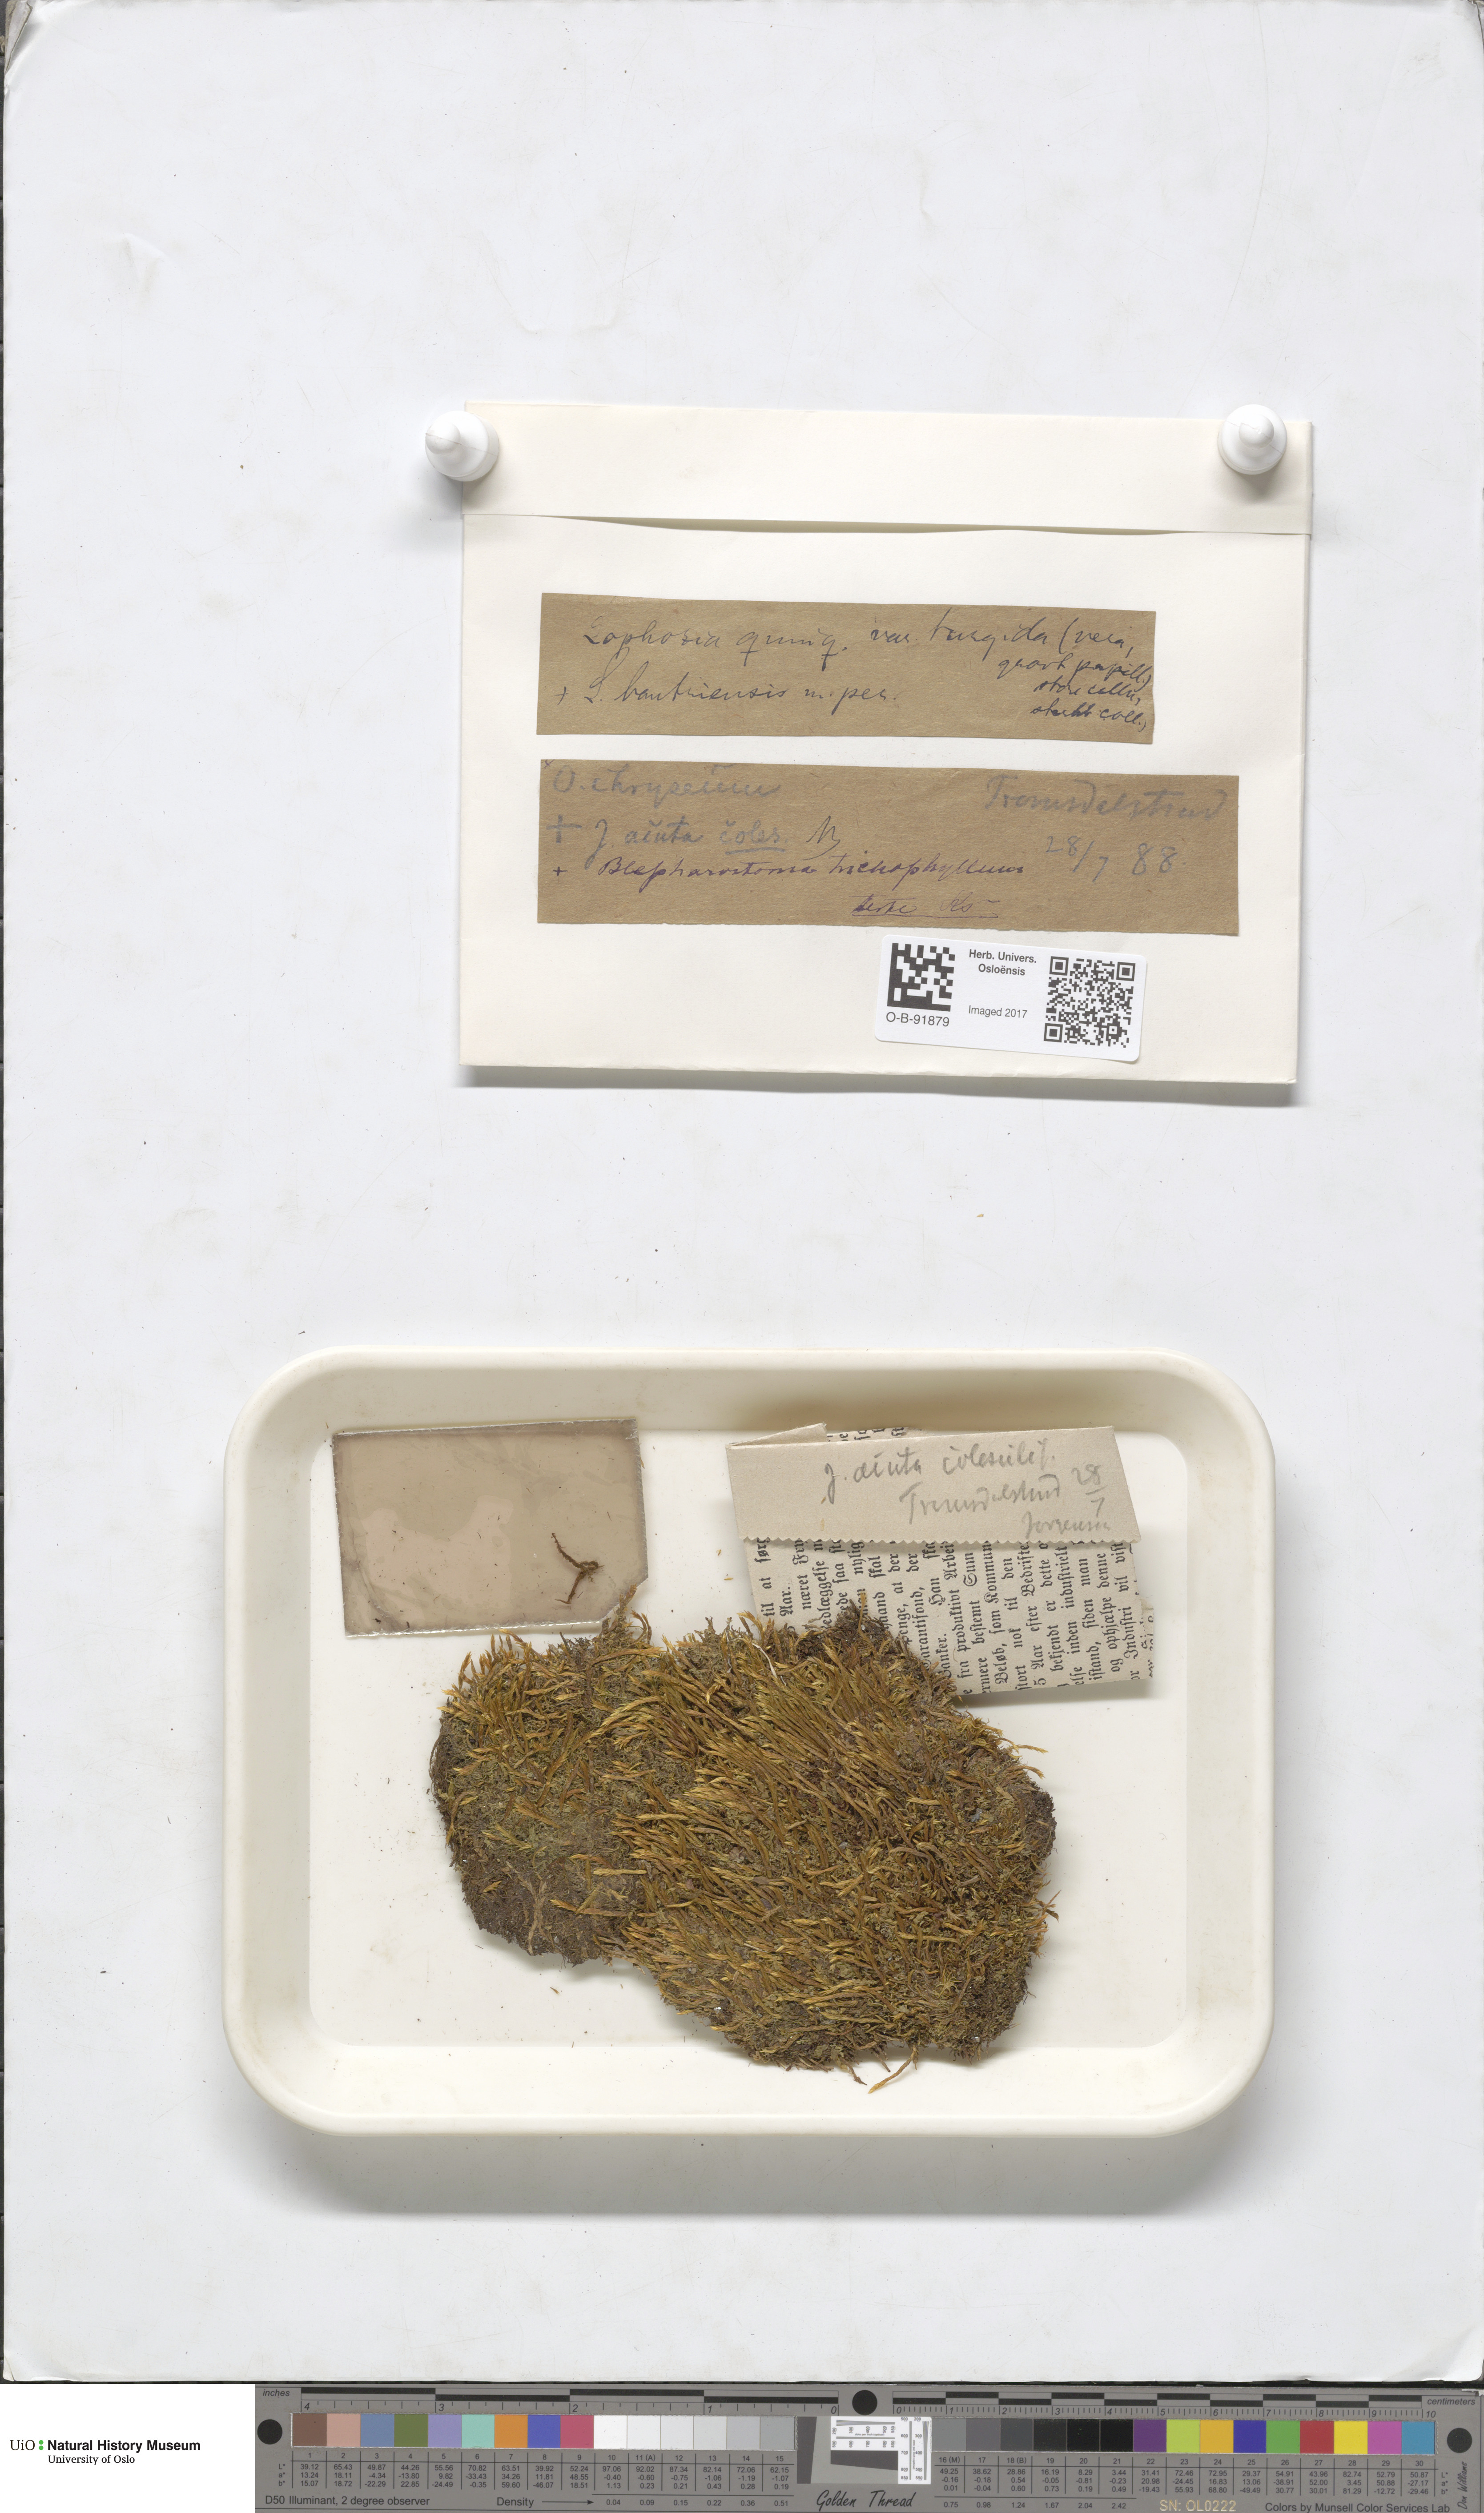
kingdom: Plantae
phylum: Marchantiophyta
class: Jungermanniopsida
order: Jungermanniales
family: Jungermanniaceae
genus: Mesoptychia
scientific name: Mesoptychia bantriensis
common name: Bantry notchwort
